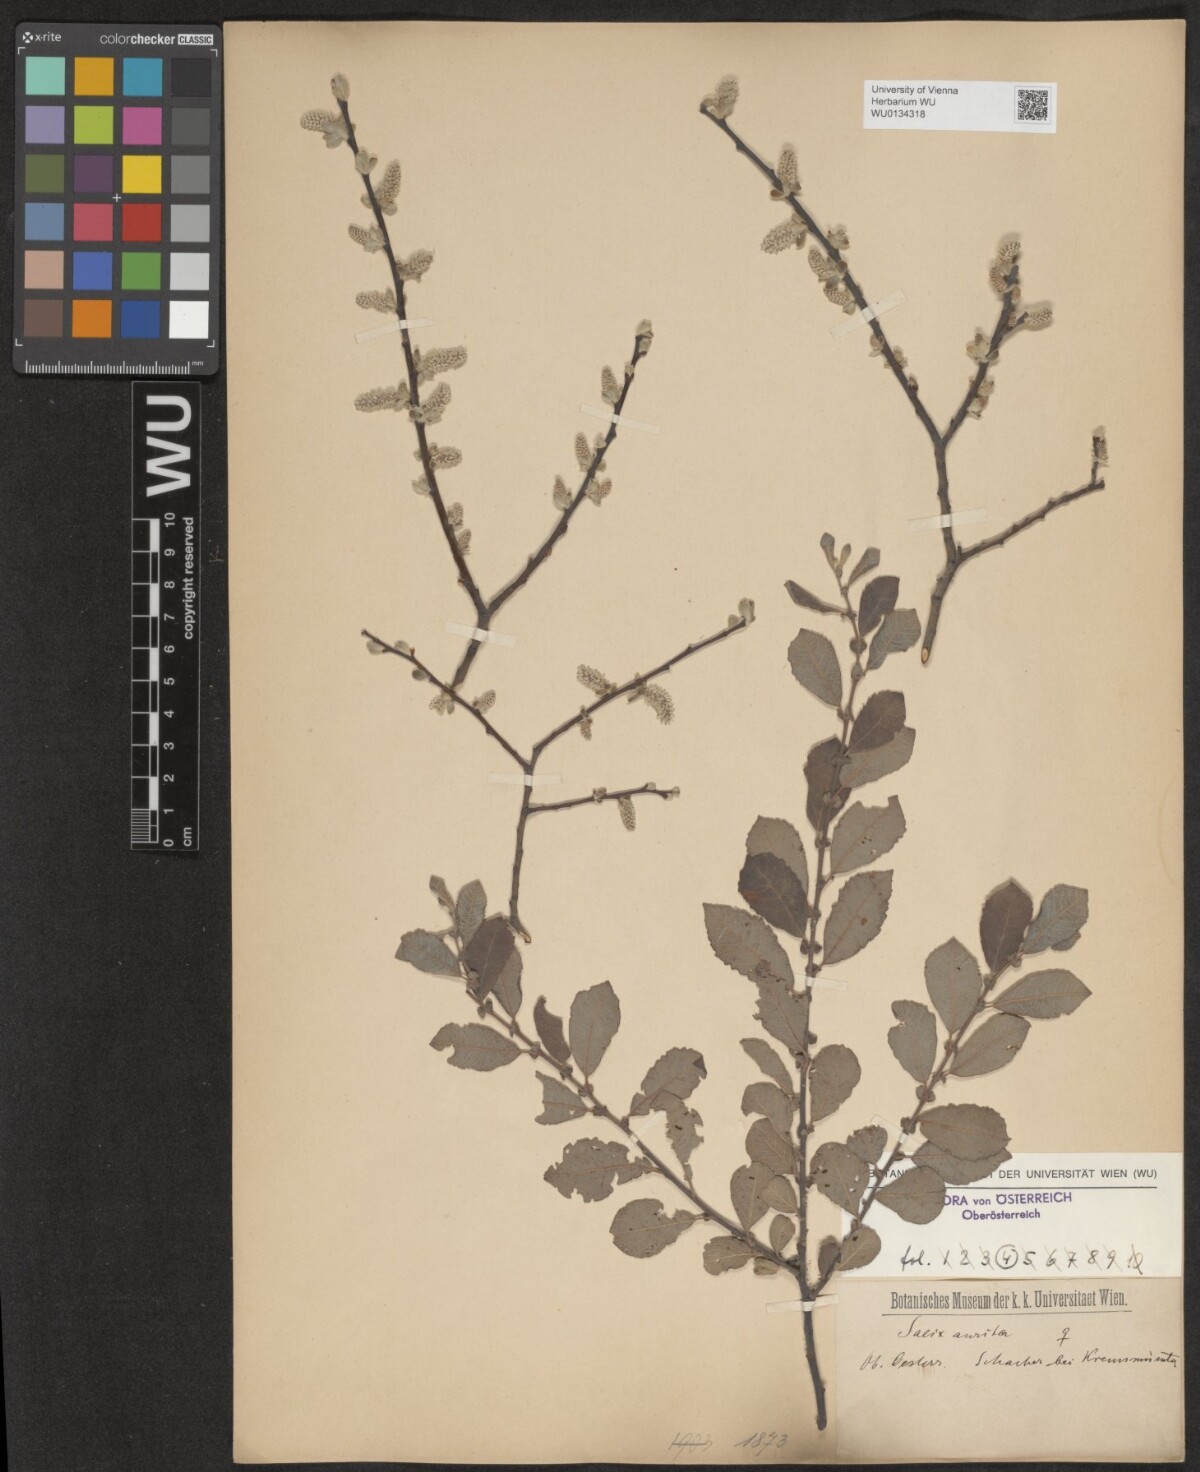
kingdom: Plantae
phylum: Tracheophyta
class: Magnoliopsida
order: Malpighiales
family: Salicaceae
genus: Salix
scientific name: Salix aurita
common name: Eared willow
